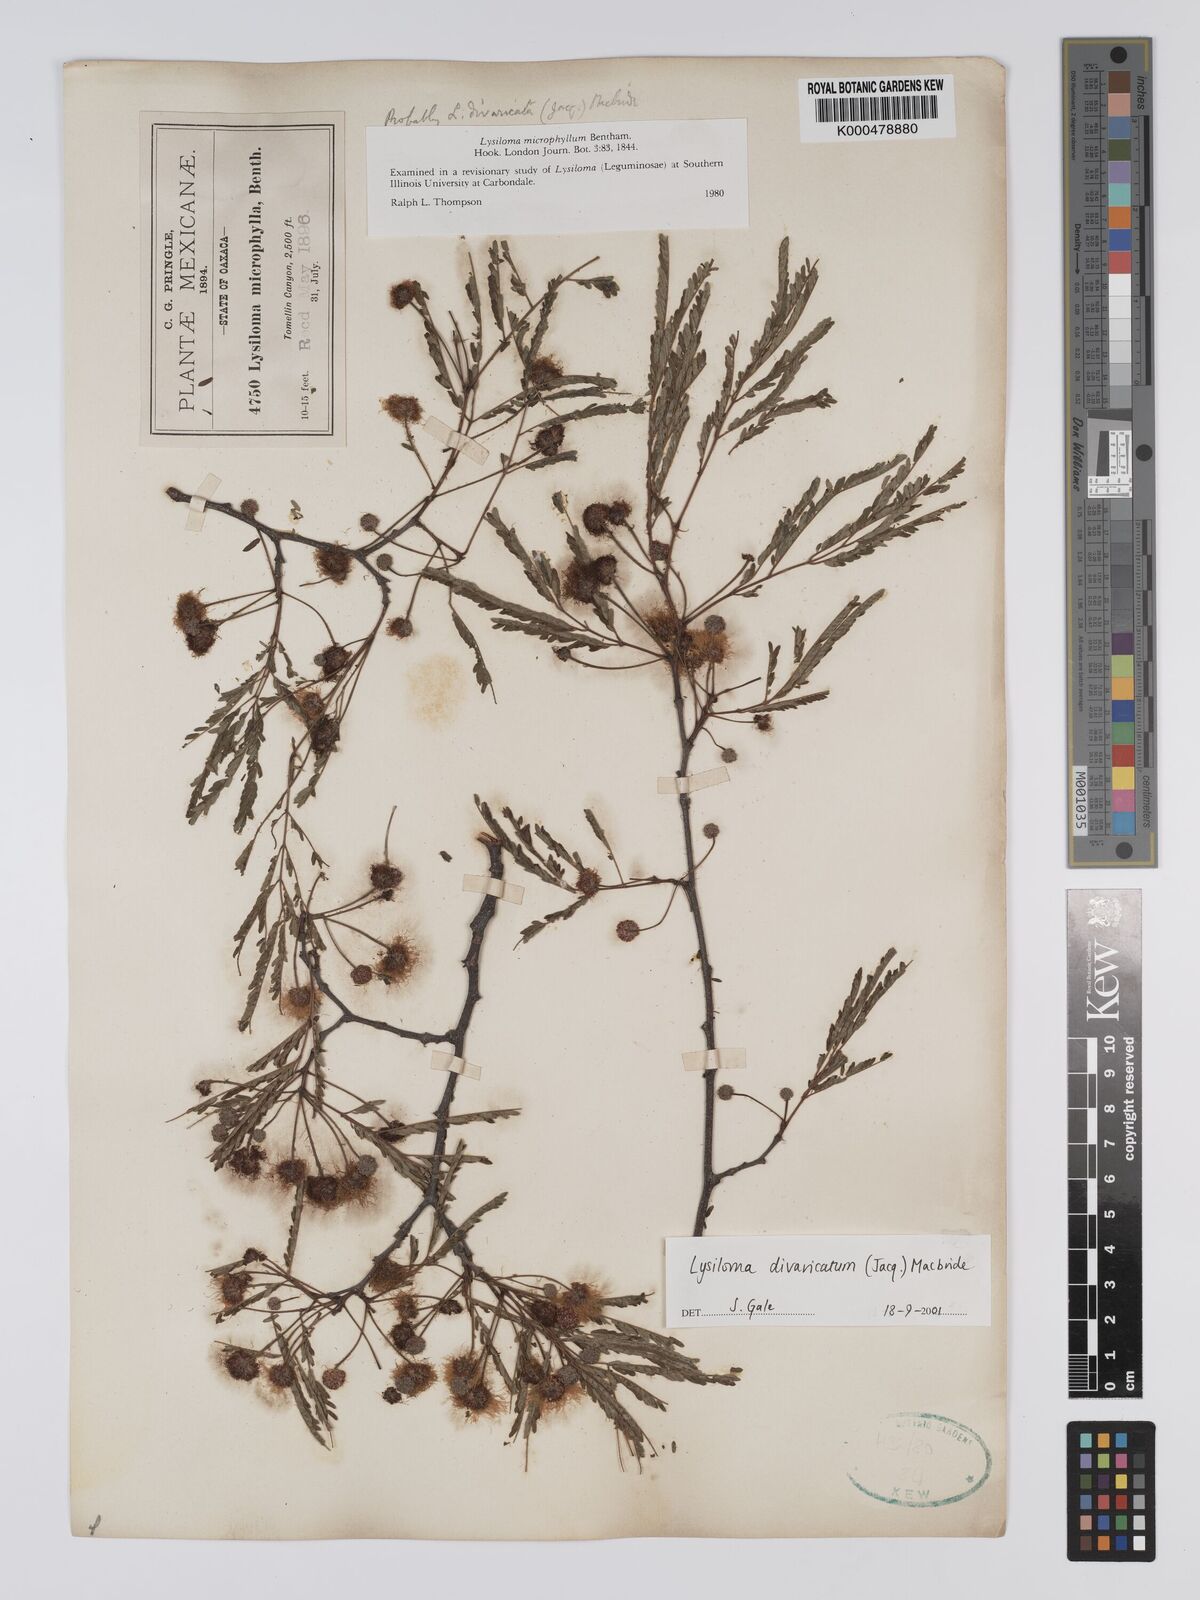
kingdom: Plantae
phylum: Tracheophyta
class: Magnoliopsida
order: Fabales
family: Fabaceae
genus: Lysiloma
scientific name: Lysiloma divaricatum
